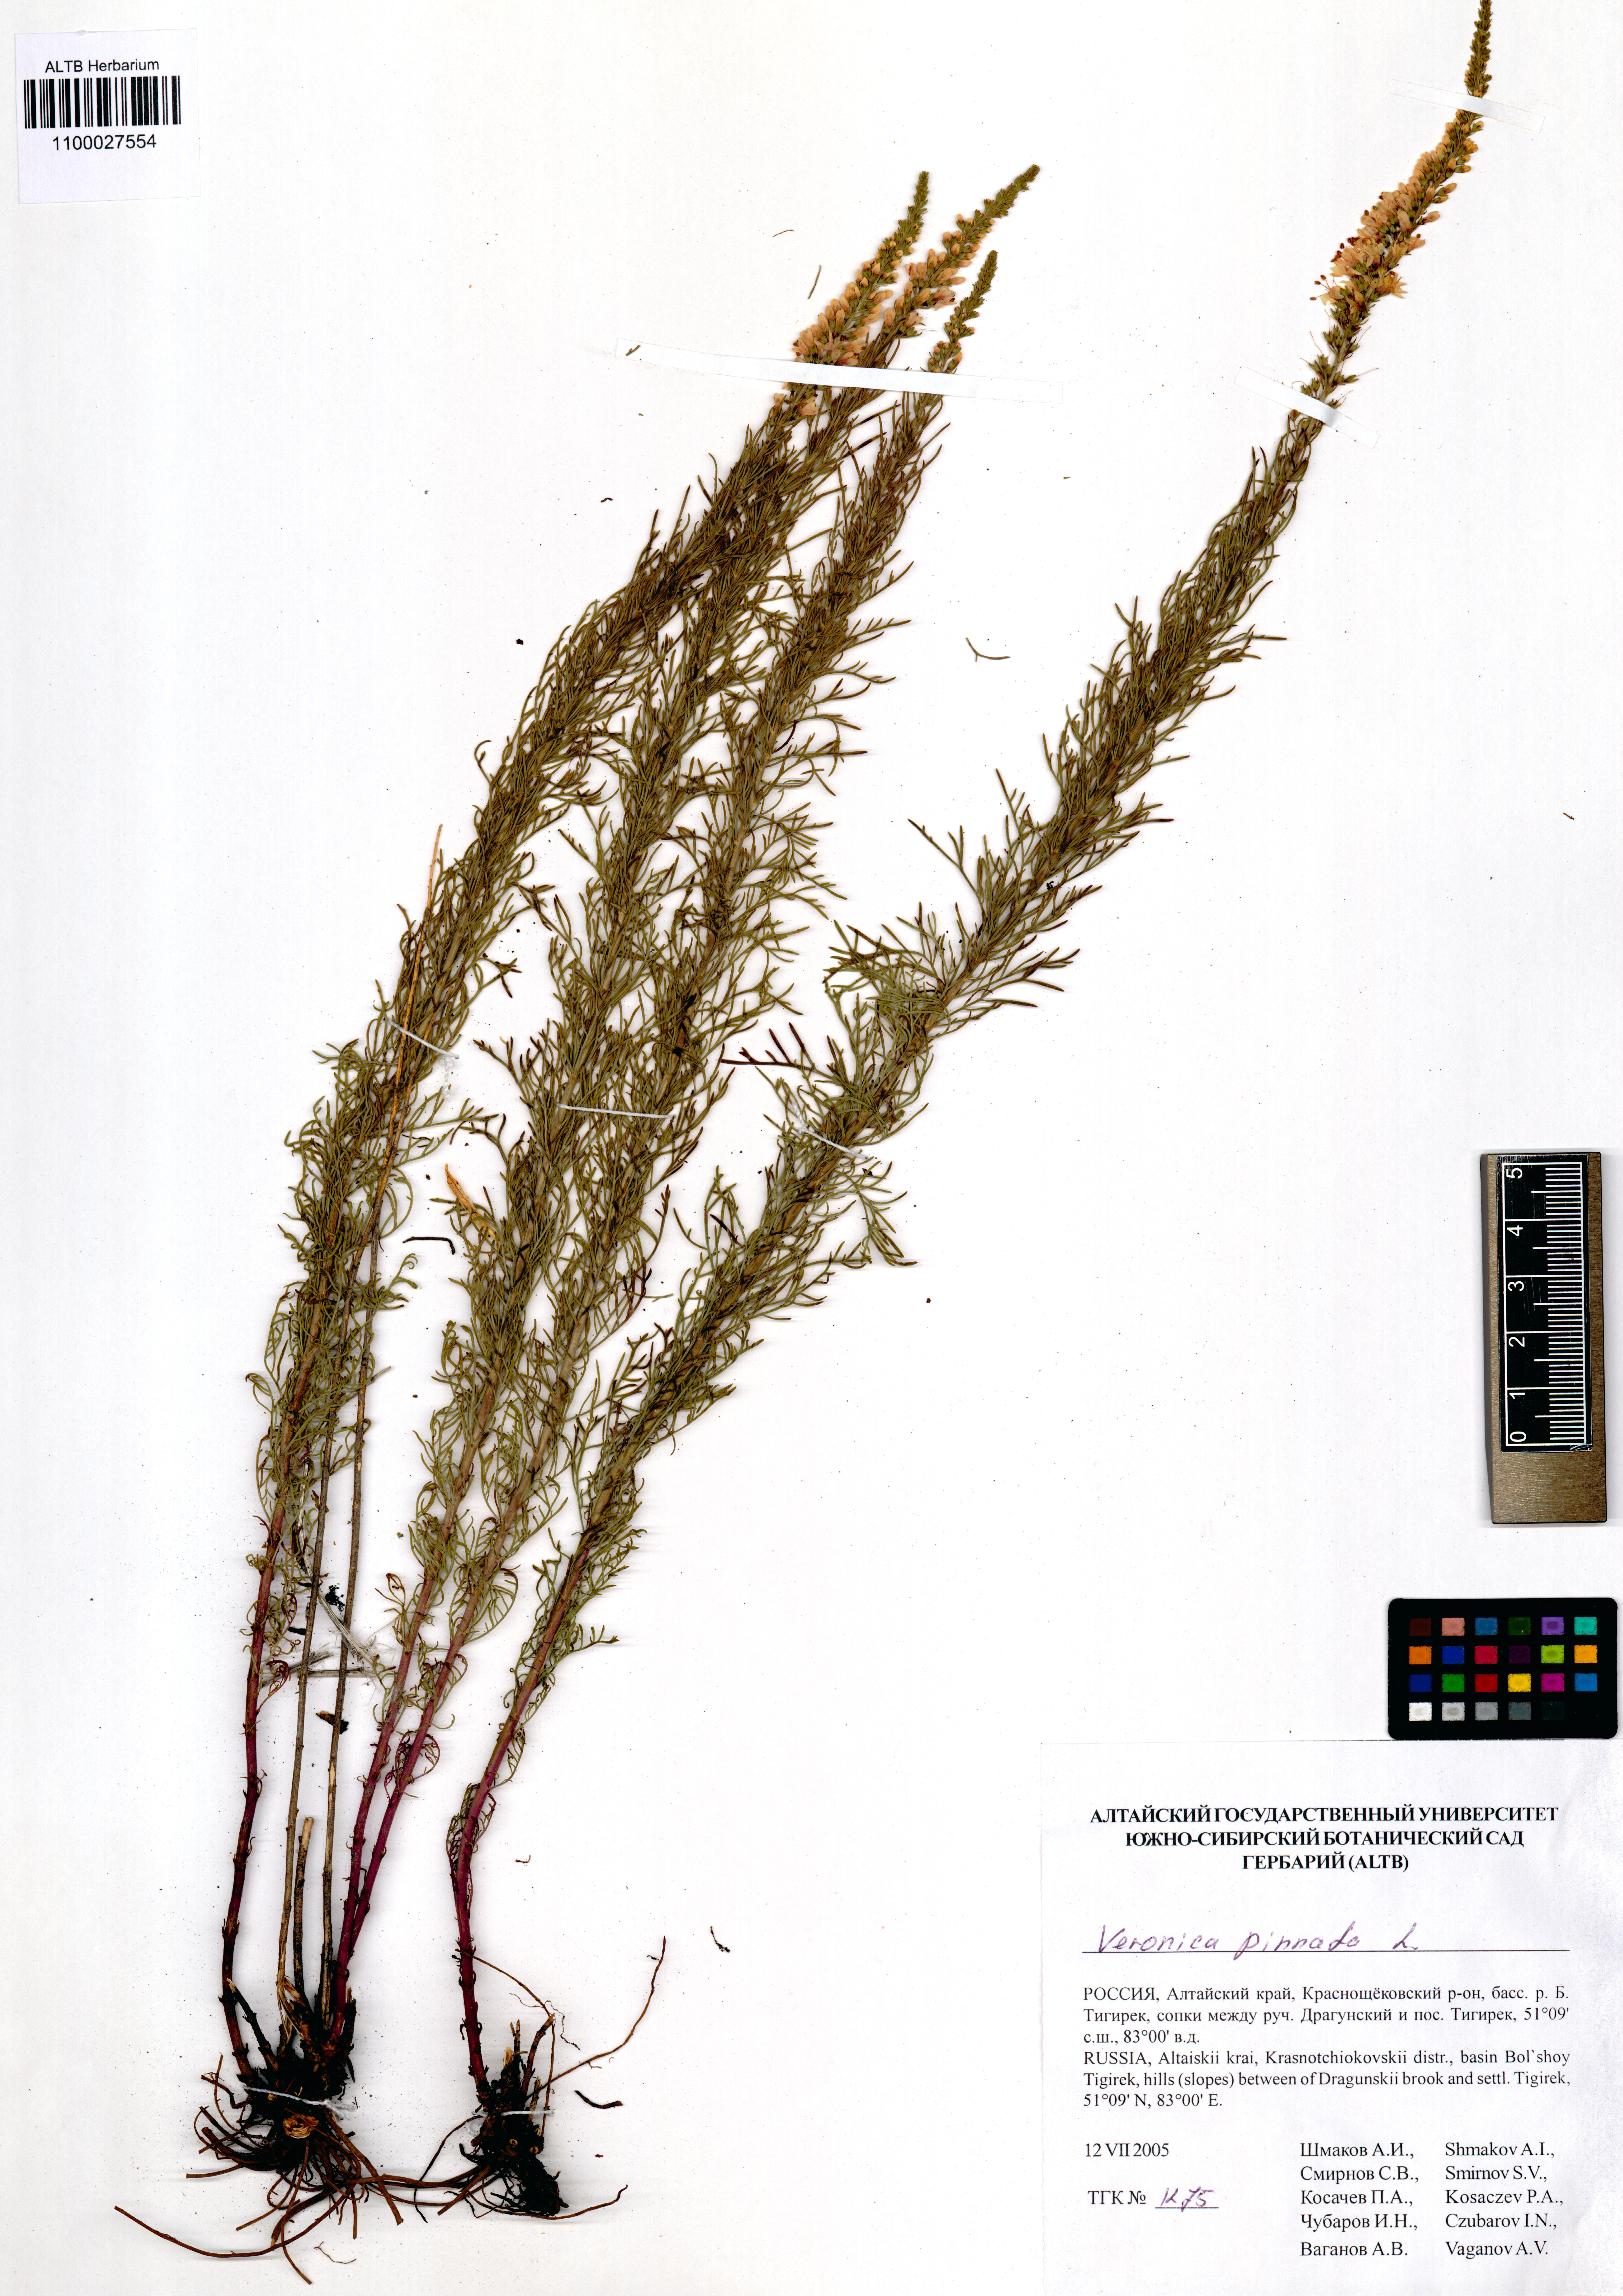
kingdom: Plantae
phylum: Tracheophyta
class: Magnoliopsida
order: Lamiales
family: Plantaginaceae
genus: Veronica
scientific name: Veronica pinnata
